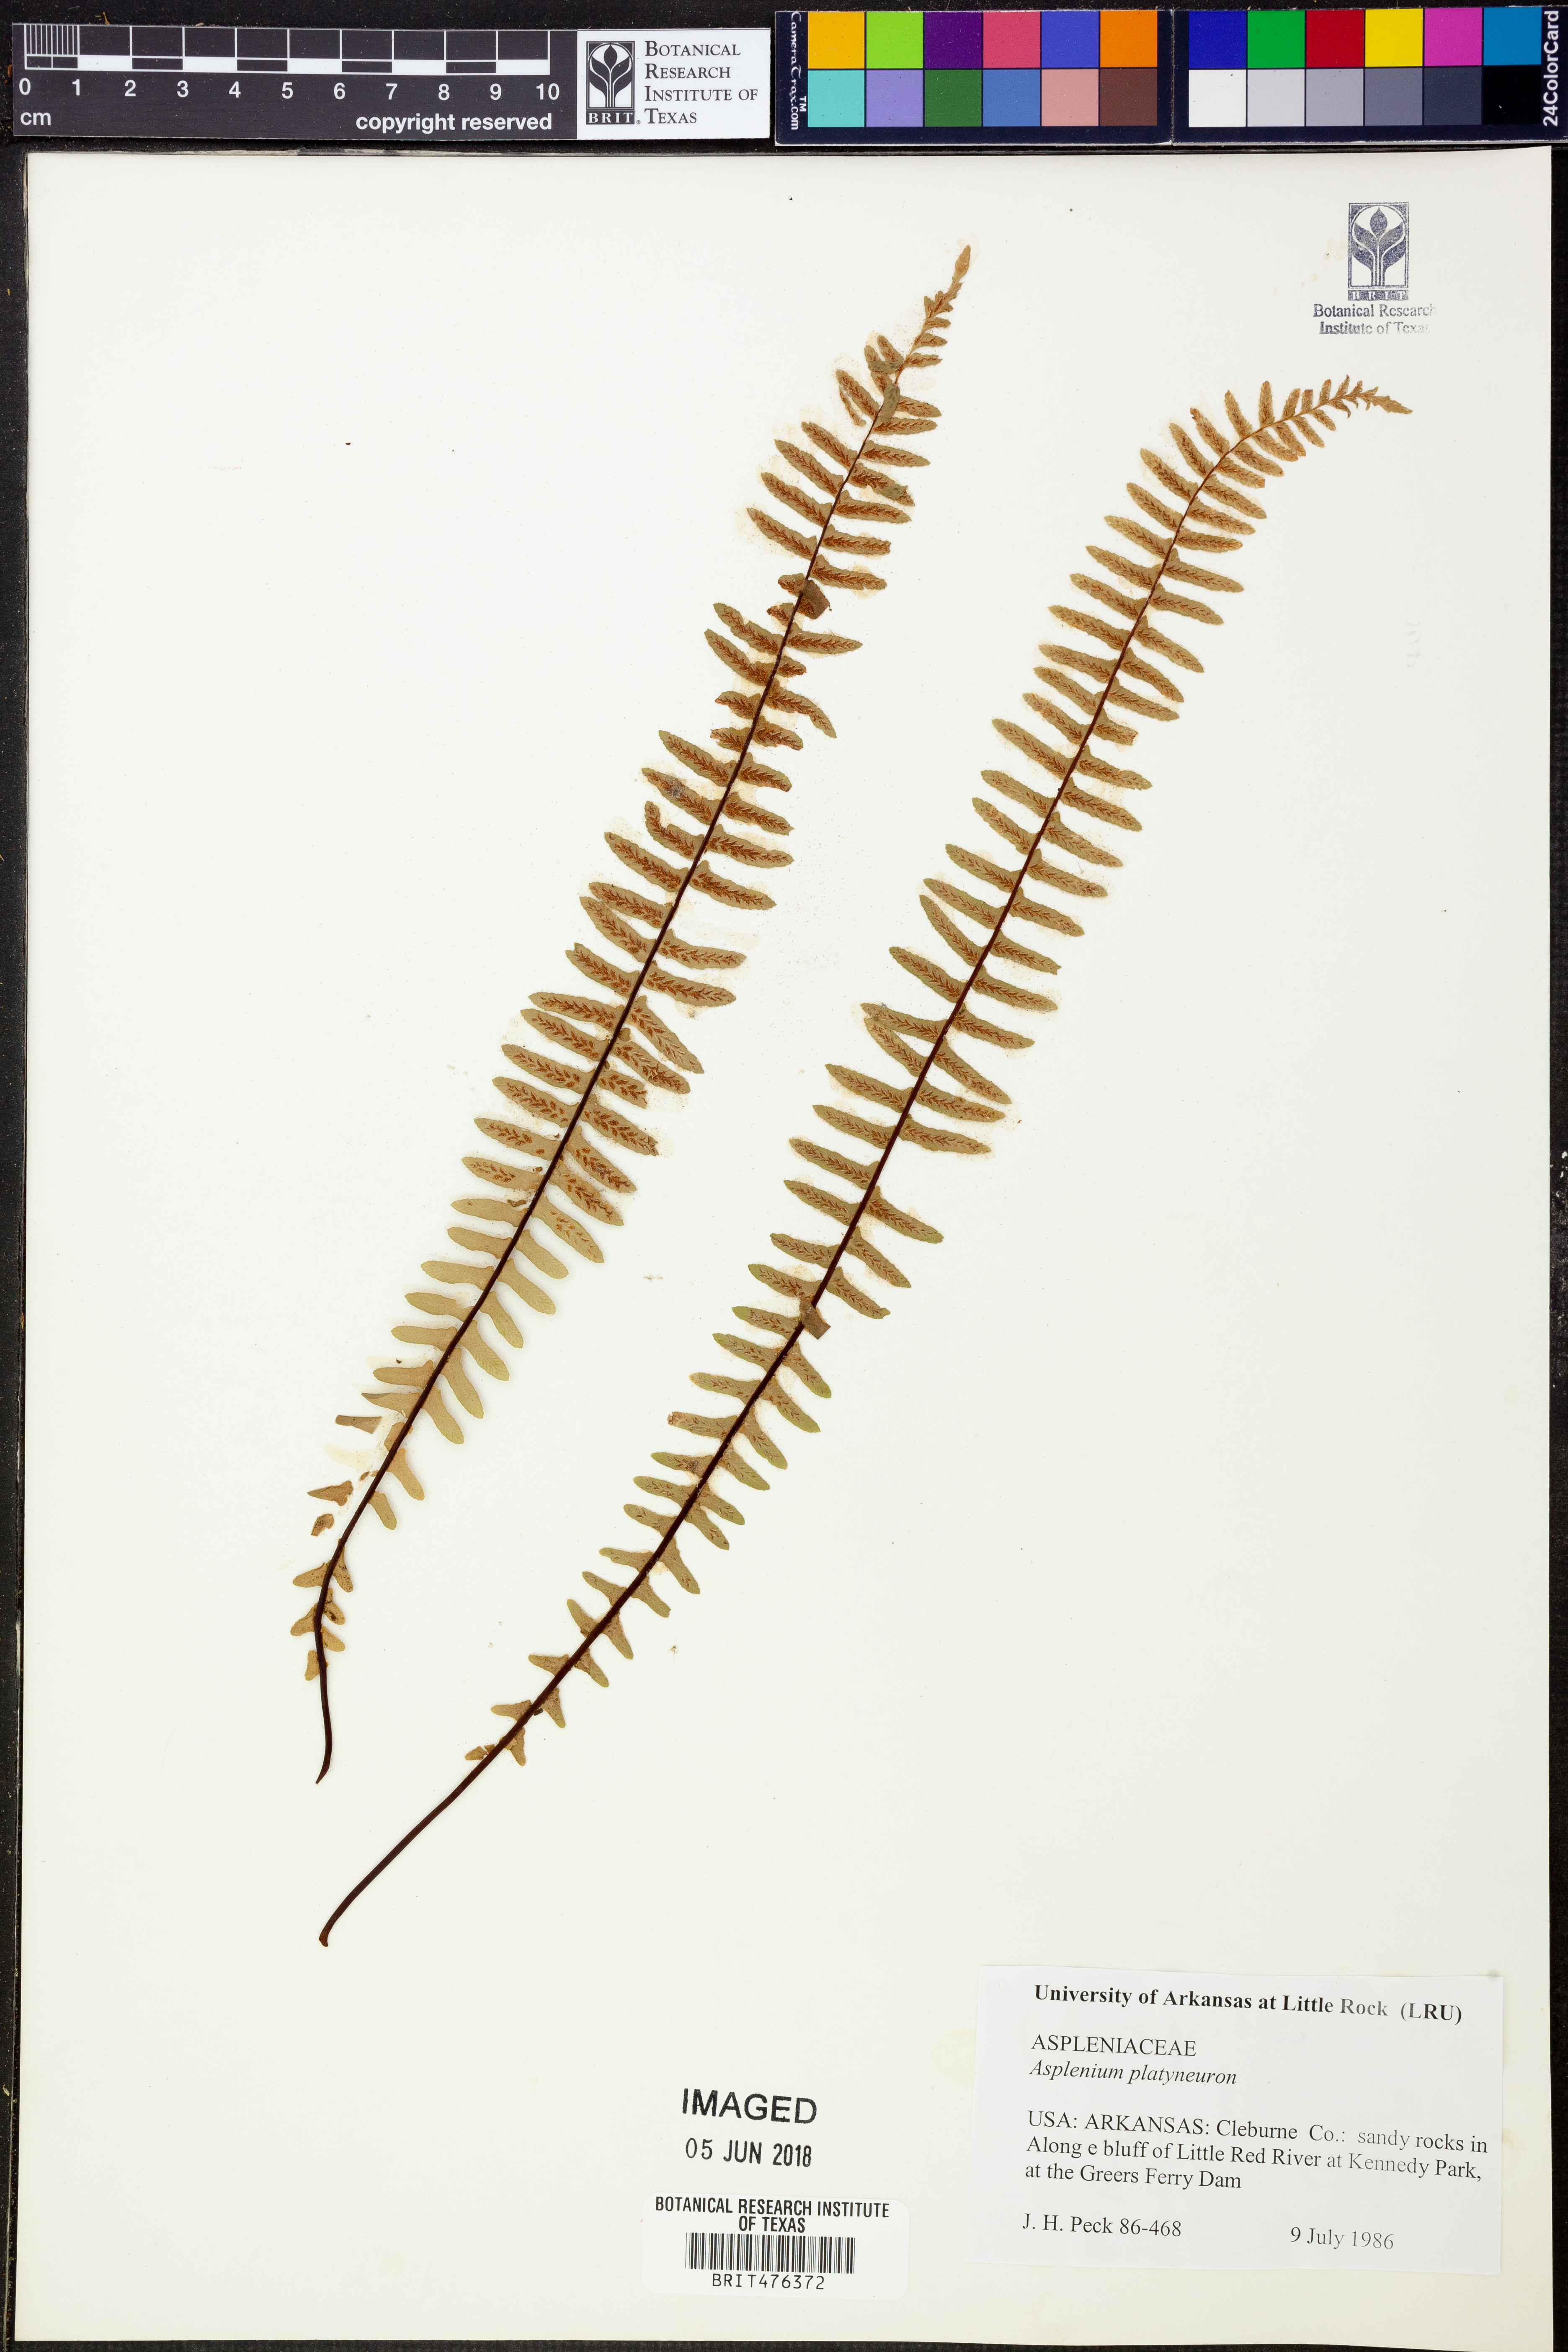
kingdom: Plantae
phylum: Tracheophyta
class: Polypodiopsida
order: Polypodiales
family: Aspleniaceae
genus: Asplenium
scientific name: Asplenium platyneuron
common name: Ebony spleenwort
